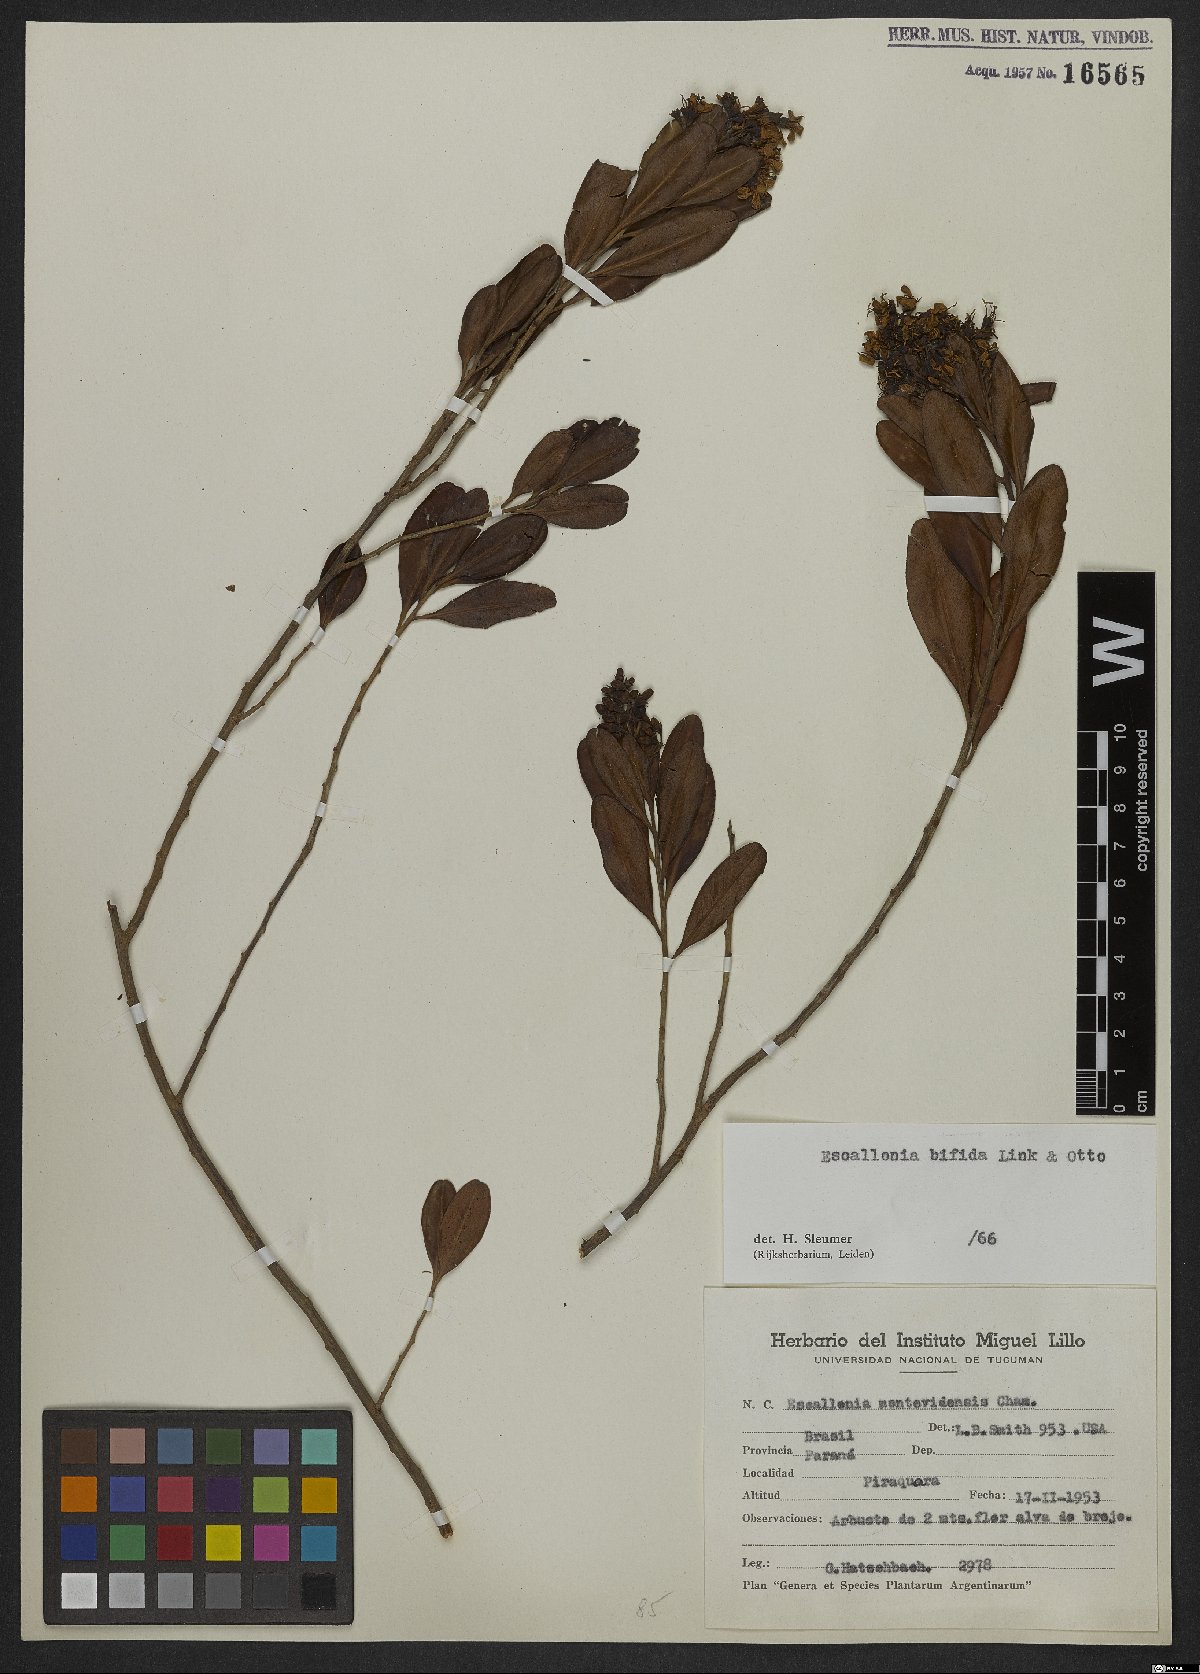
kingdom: Plantae
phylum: Tracheophyta
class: Magnoliopsida
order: Escalloniales
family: Escalloniaceae
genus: Escallonia
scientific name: Escallonia bifida
